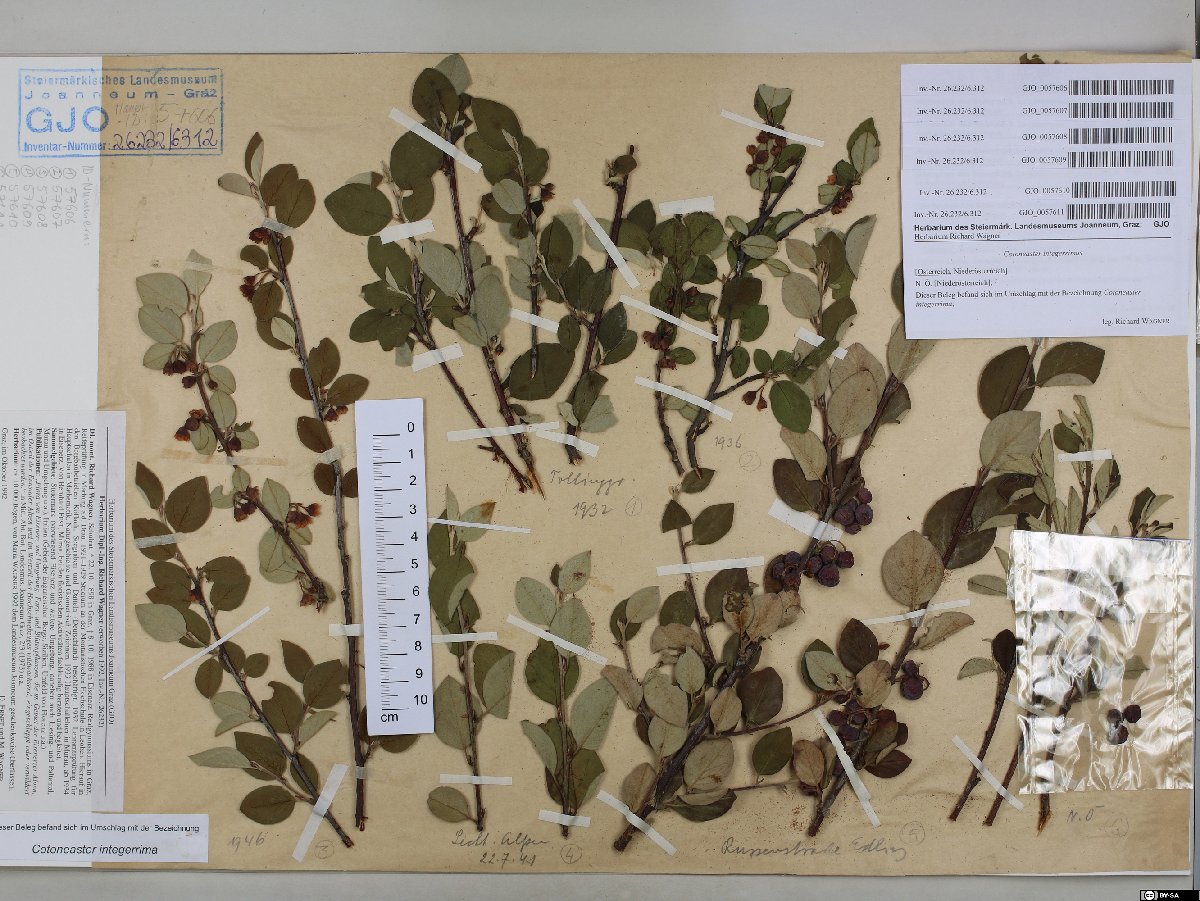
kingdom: Plantae
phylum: Tracheophyta
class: Magnoliopsida
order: Rosales
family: Rosaceae
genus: Cotoneaster
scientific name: Cotoneaster integerrimus
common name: Wild cotoneaster
